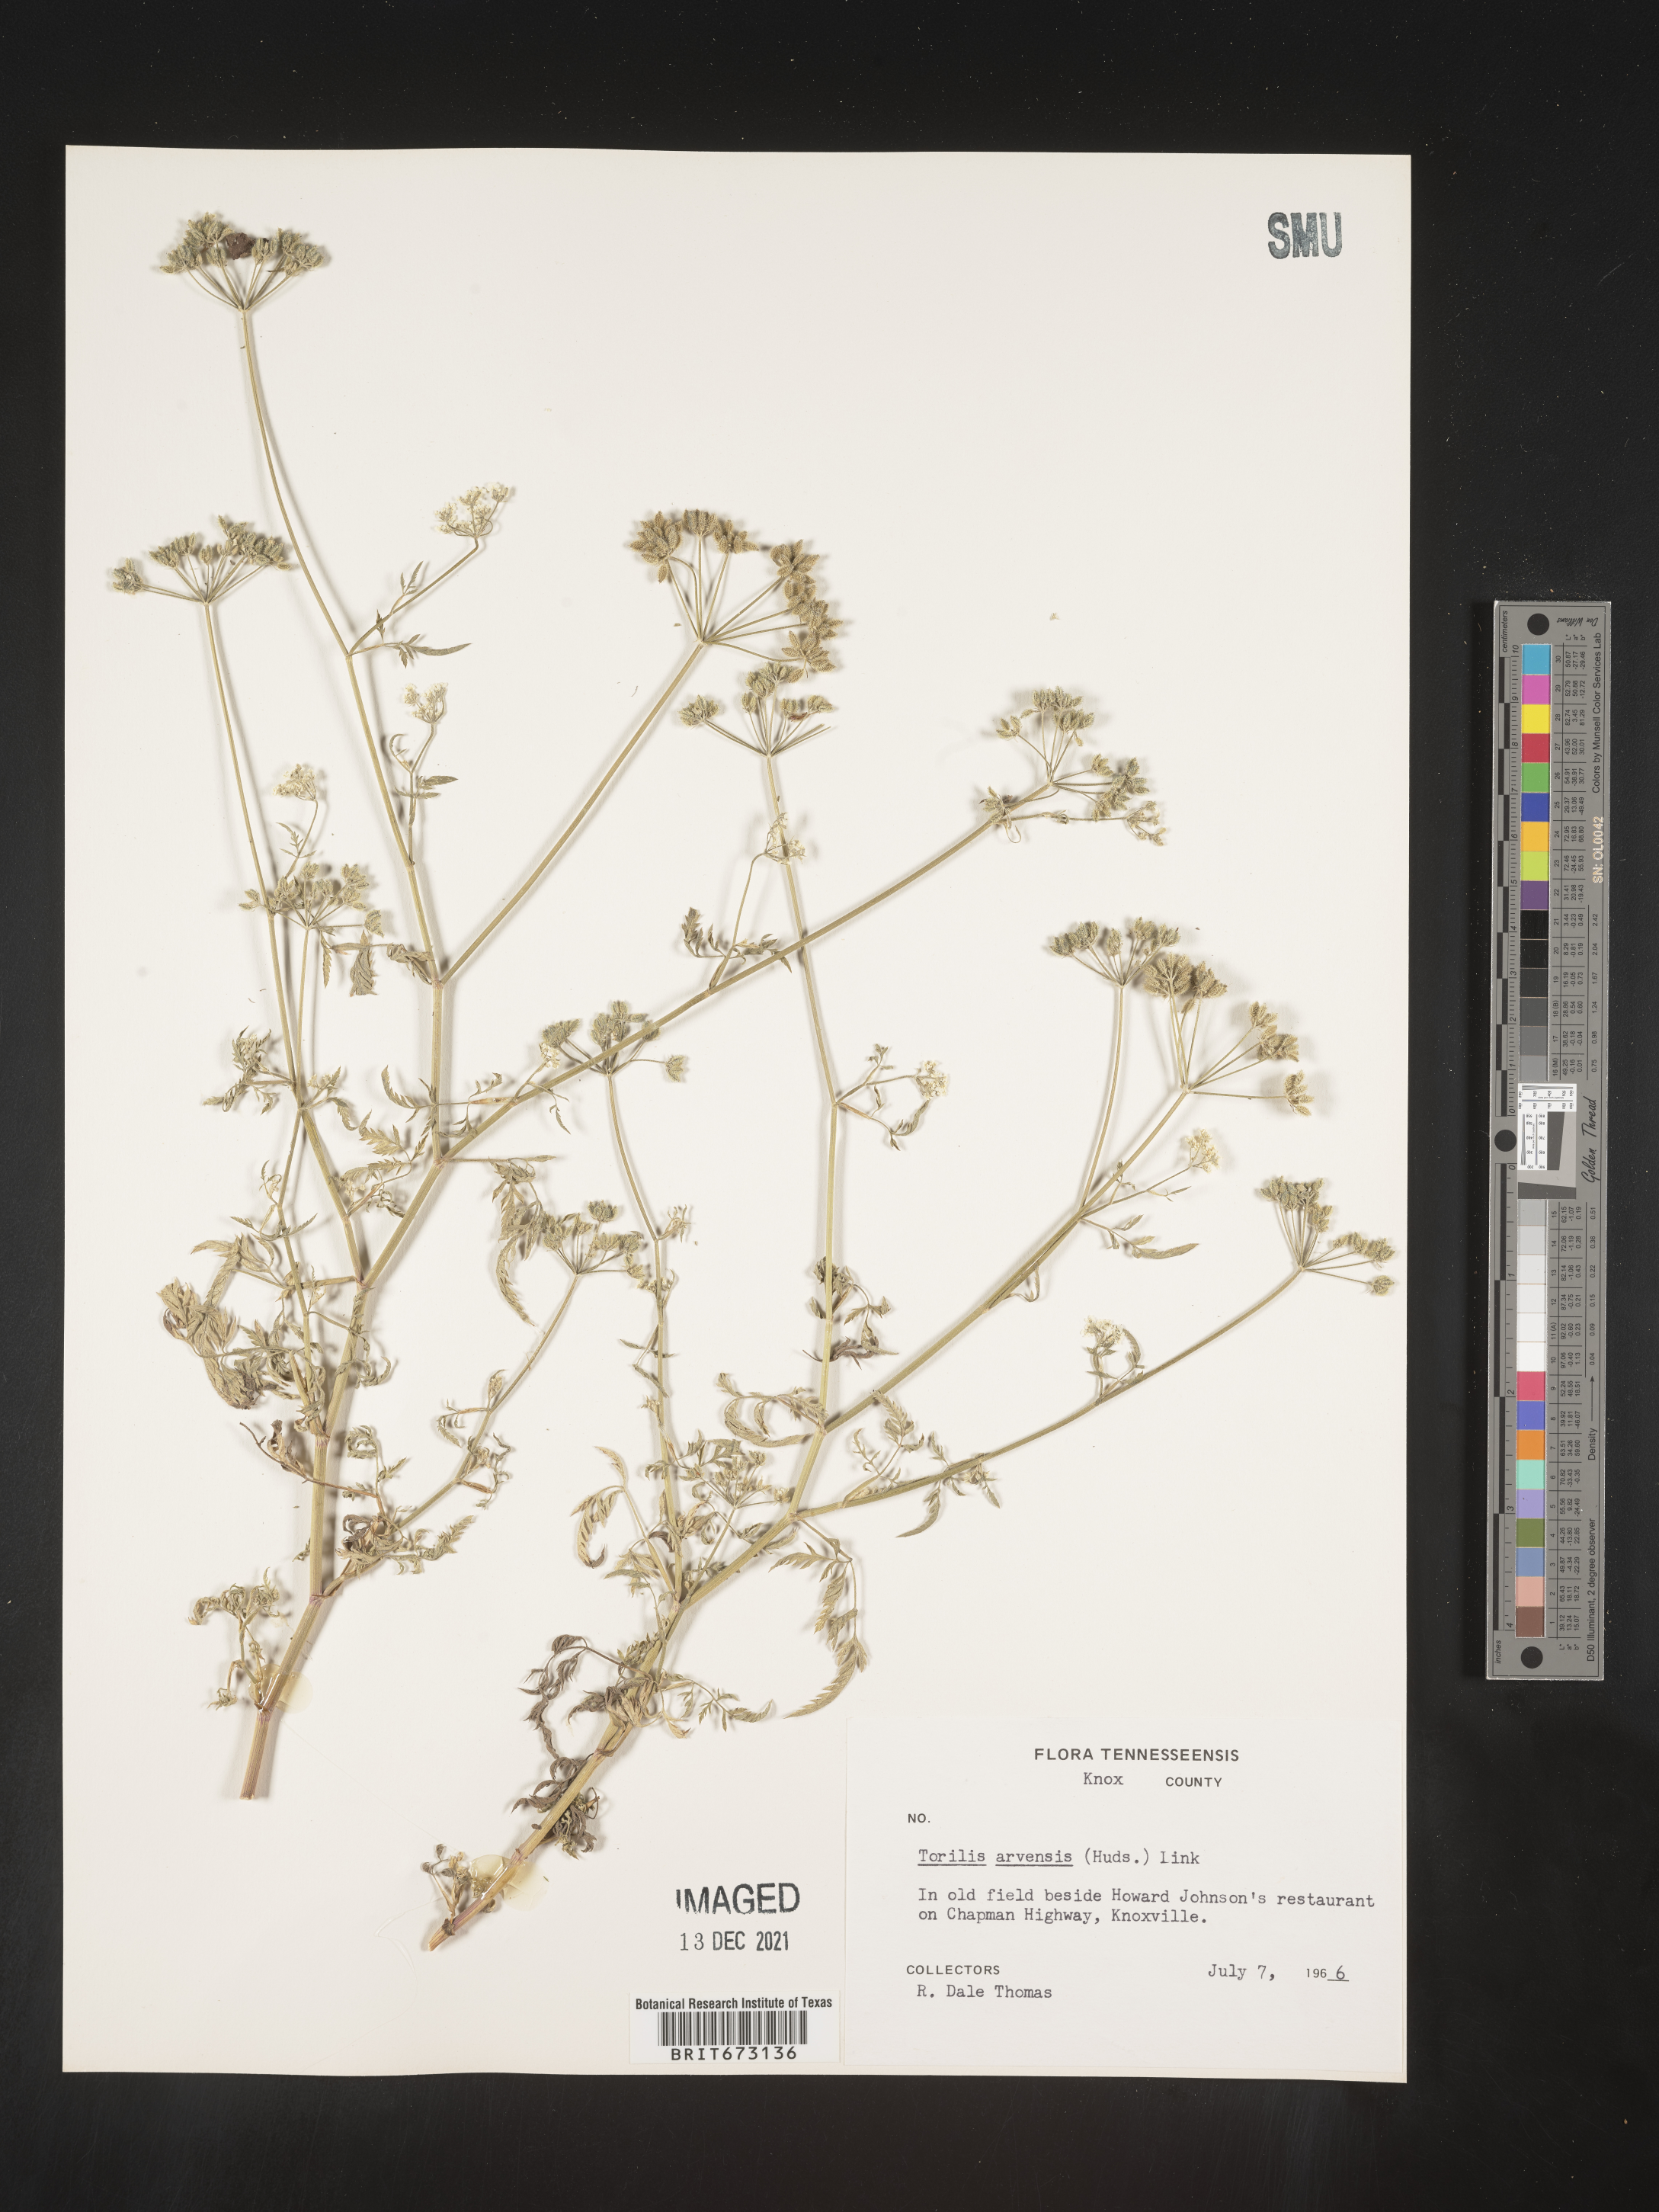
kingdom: Plantae
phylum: Tracheophyta
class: Magnoliopsida
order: Apiales
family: Apiaceae
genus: Torilis
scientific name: Torilis arvensis
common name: Spreading hedge-parsley
